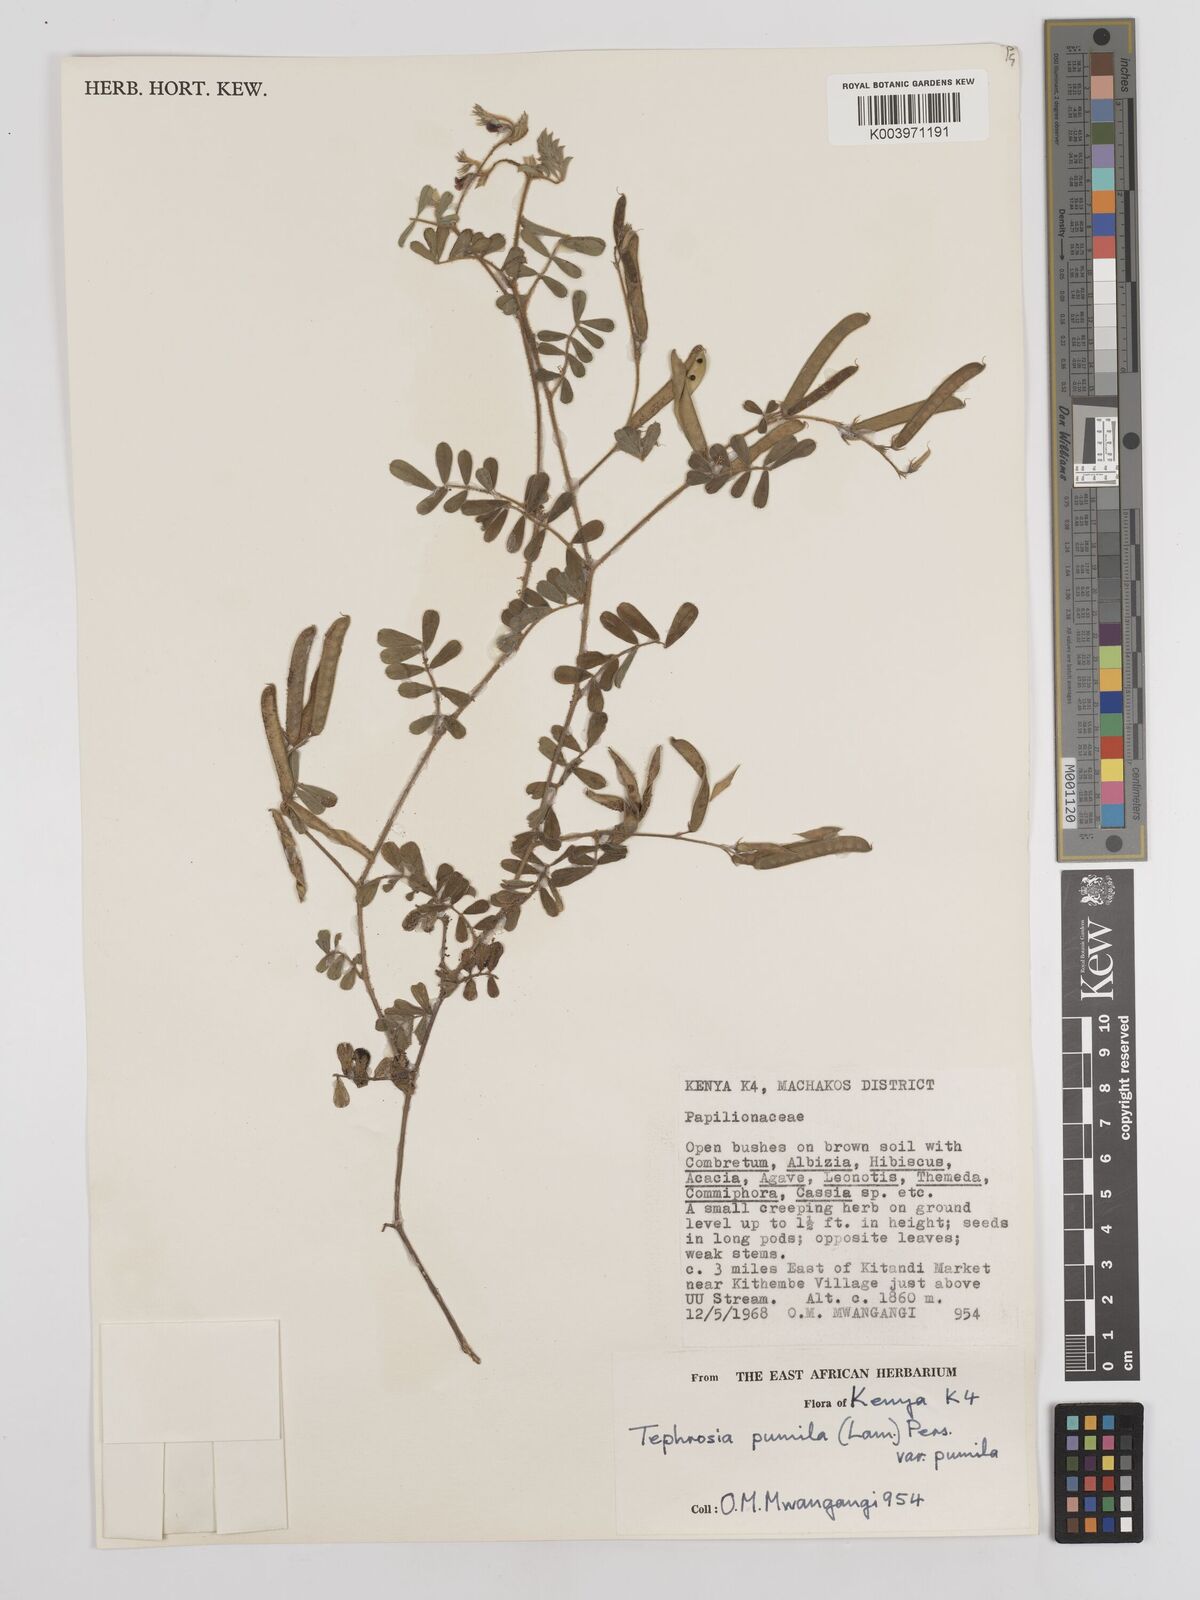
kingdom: Plantae
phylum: Tracheophyta
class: Magnoliopsida
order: Fabales
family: Fabaceae
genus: Tephrosia
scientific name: Tephrosia pumila
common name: Indigo sauvage
